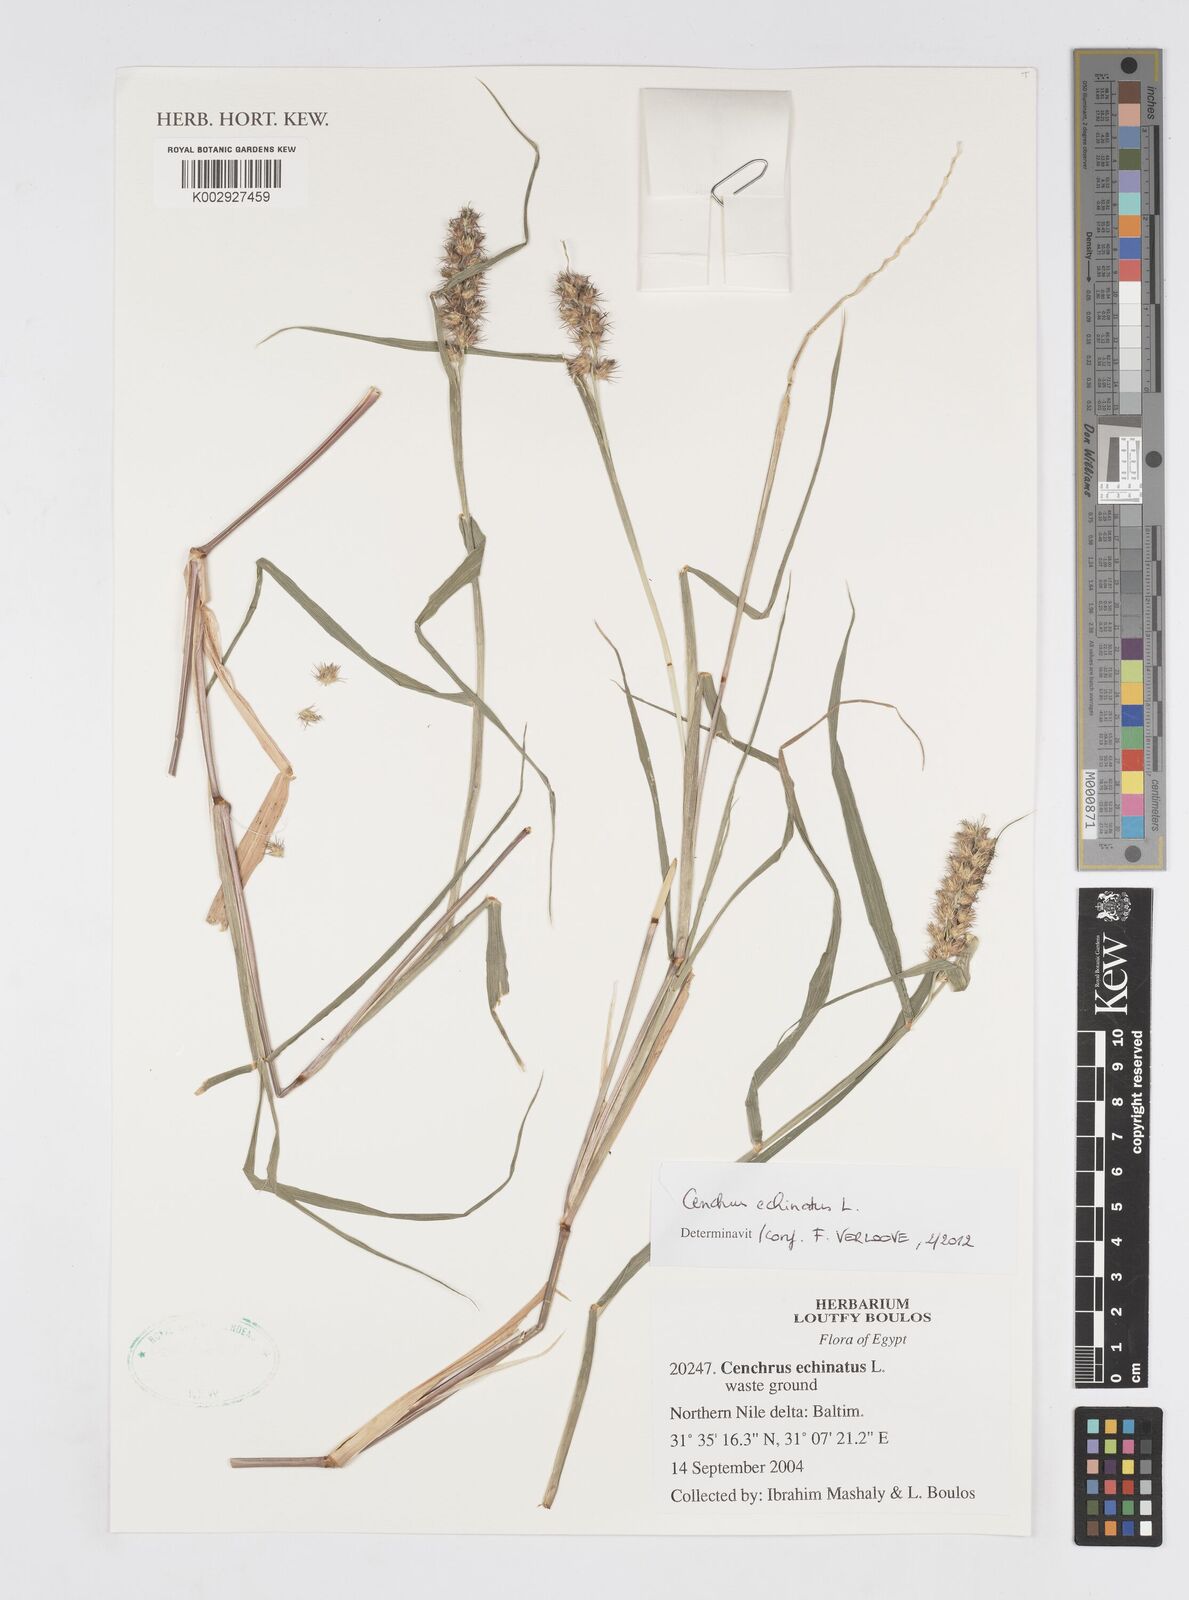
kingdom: Plantae
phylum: Tracheophyta
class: Liliopsida
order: Poales
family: Poaceae
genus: Cenchrus
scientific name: Cenchrus echinatus
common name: Southern sandbur
